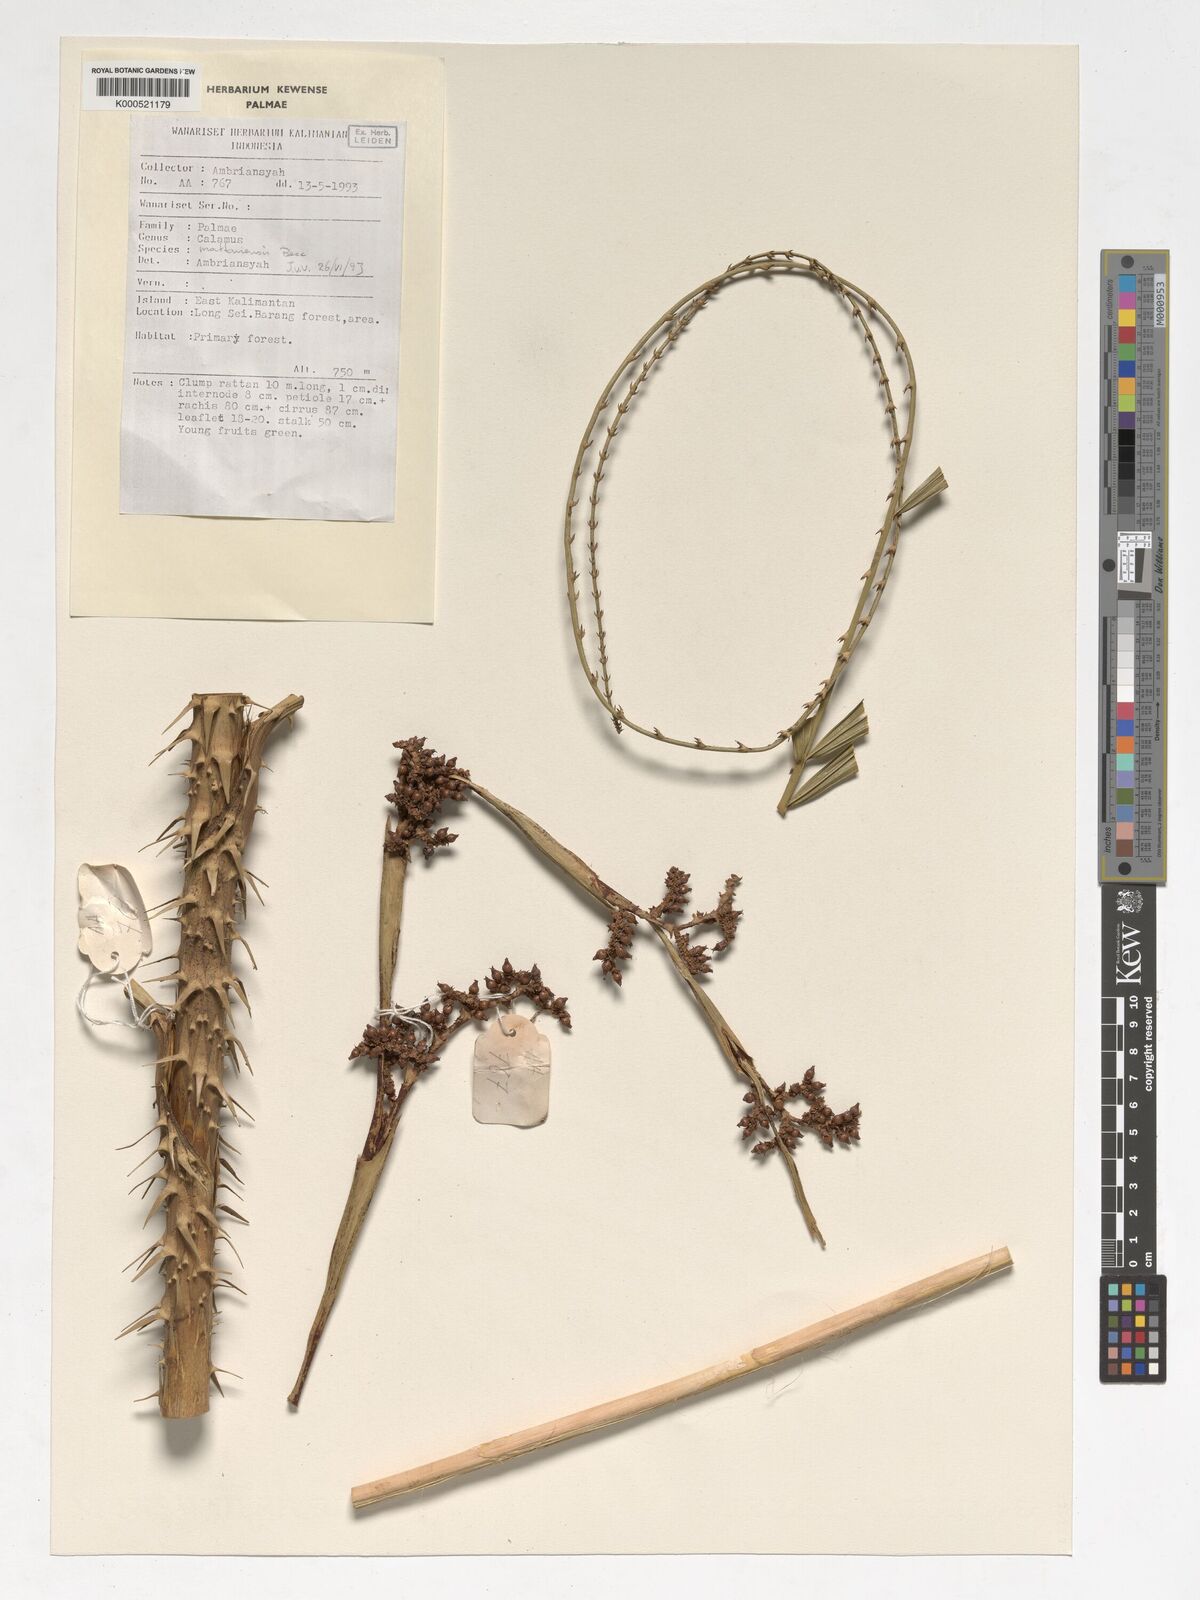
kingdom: Plantae
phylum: Tracheophyta
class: Liliopsida
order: Arecales
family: Arecaceae
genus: Calamus
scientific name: Calamus
